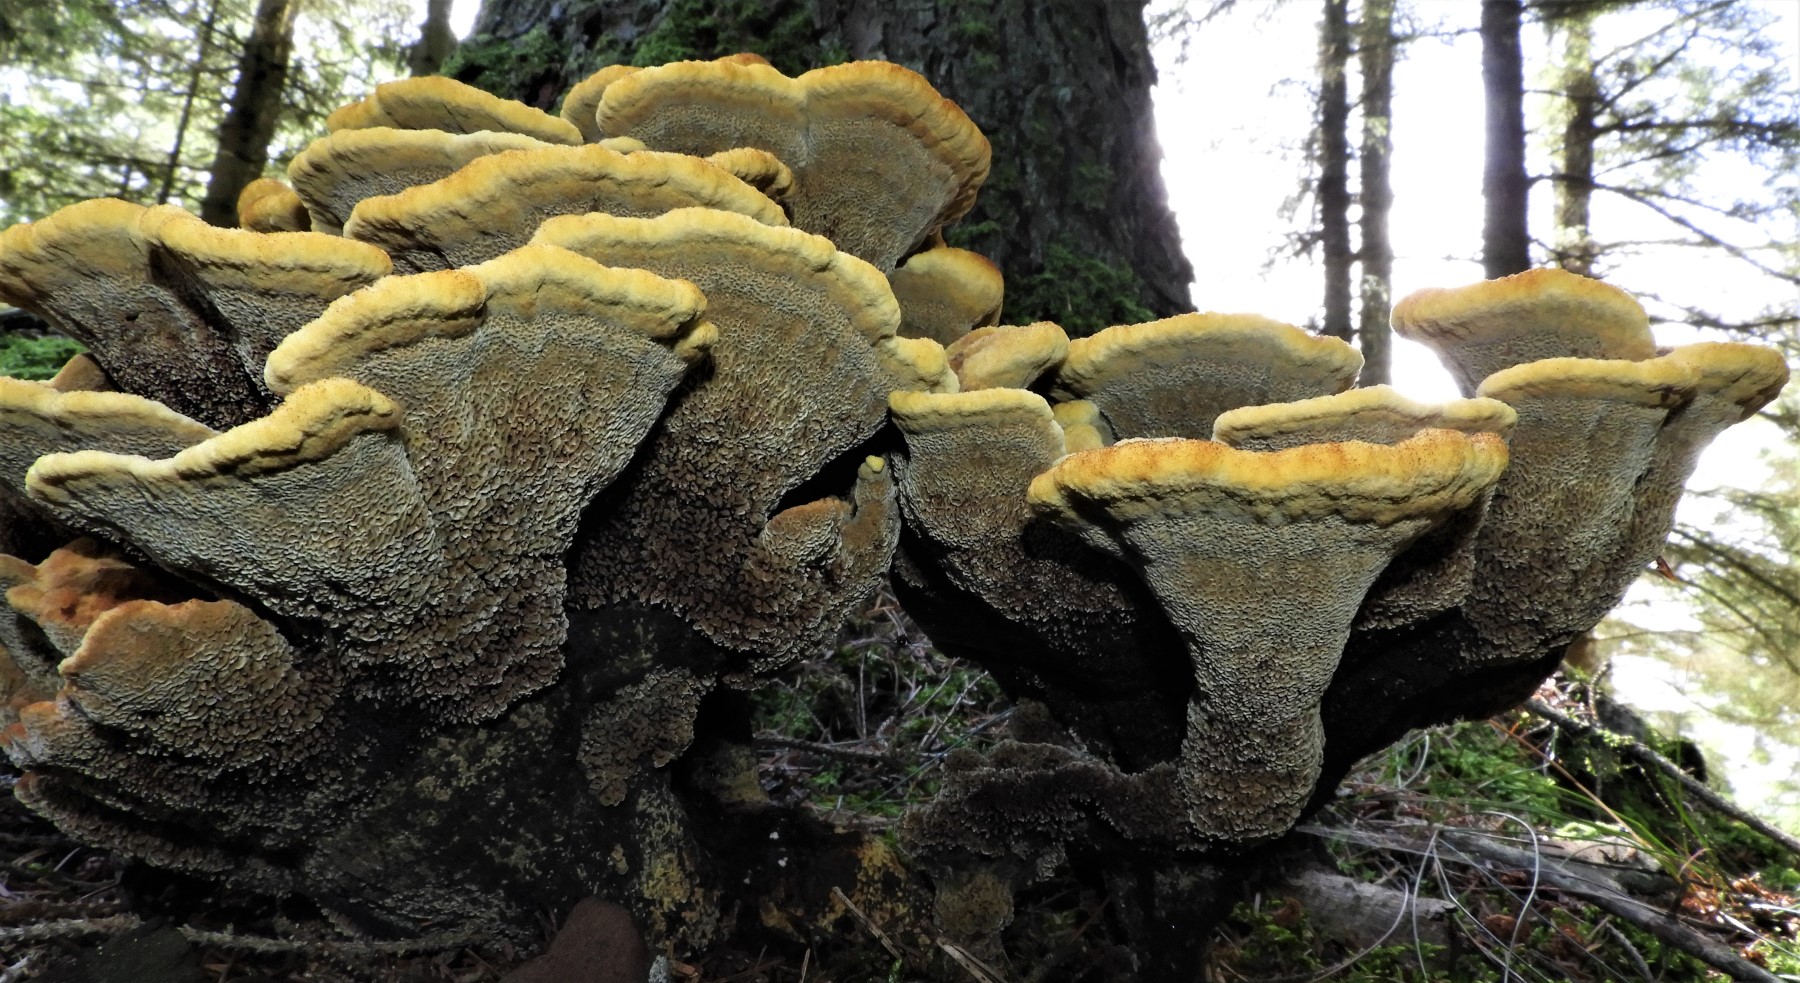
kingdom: Fungi
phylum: Basidiomycota
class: Agaricomycetes
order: Polyporales
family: Laetiporaceae
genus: Phaeolus
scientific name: Phaeolus schweinitzii
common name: brunporesvamp
